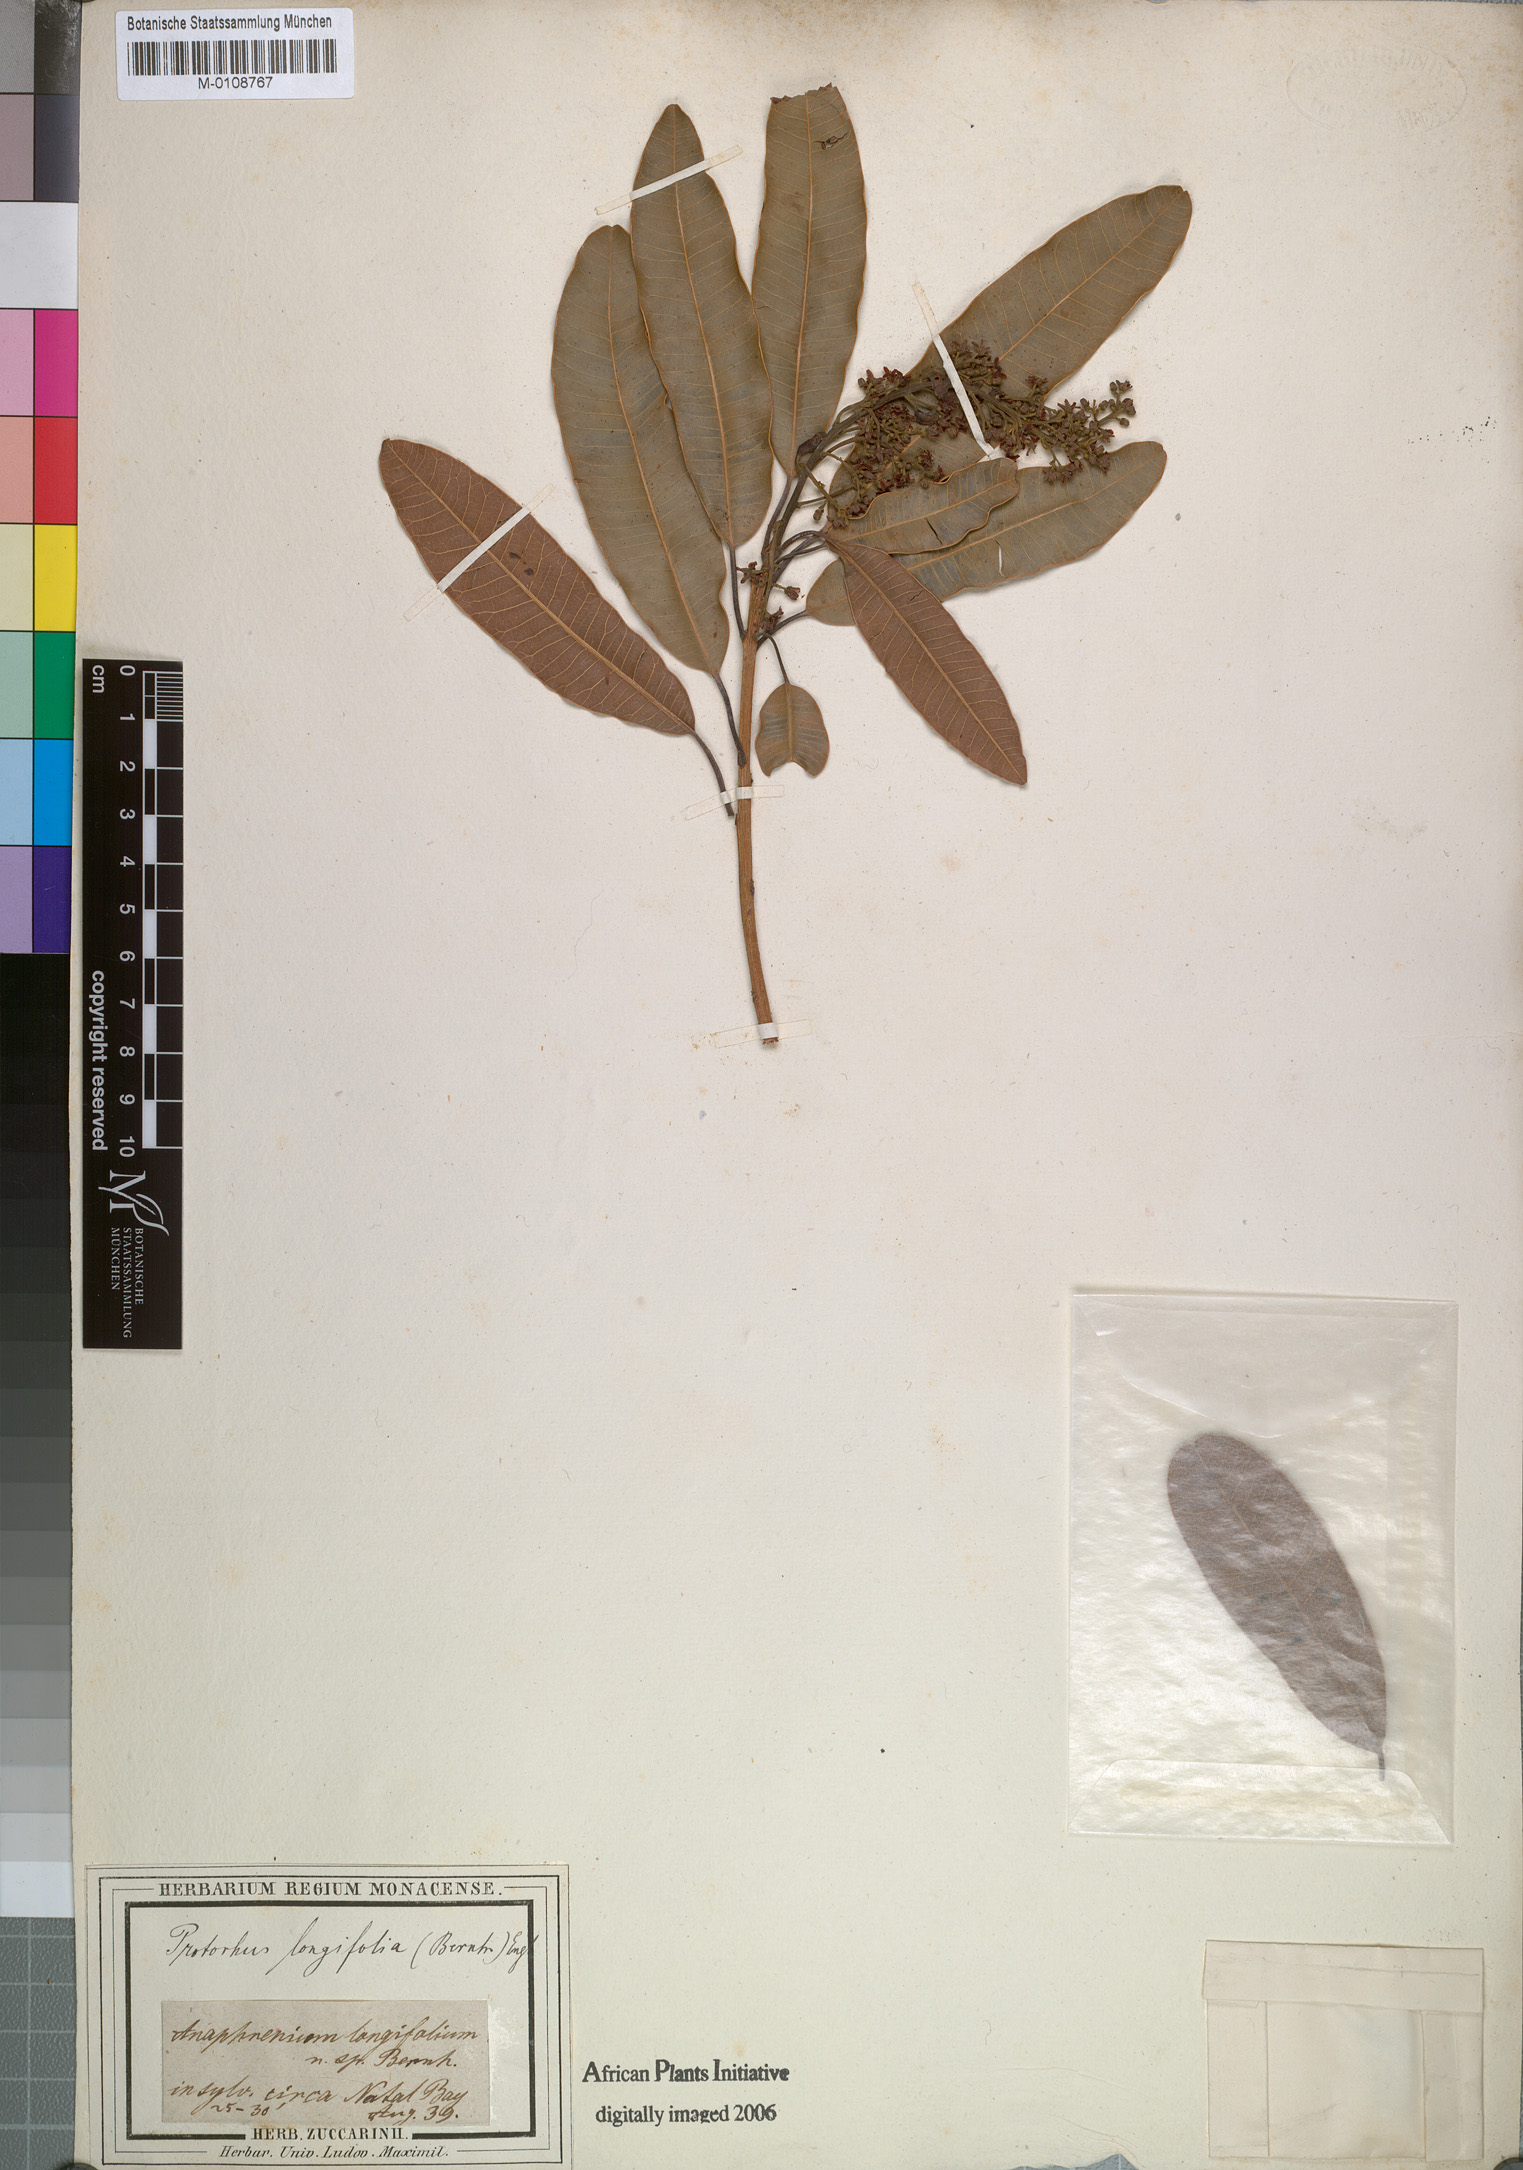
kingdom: Plantae
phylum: Tracheophyta
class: Magnoliopsida
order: Sapindales
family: Anacardiaceae
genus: Protorhus
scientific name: Protorhus longifolia
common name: Red-beech
